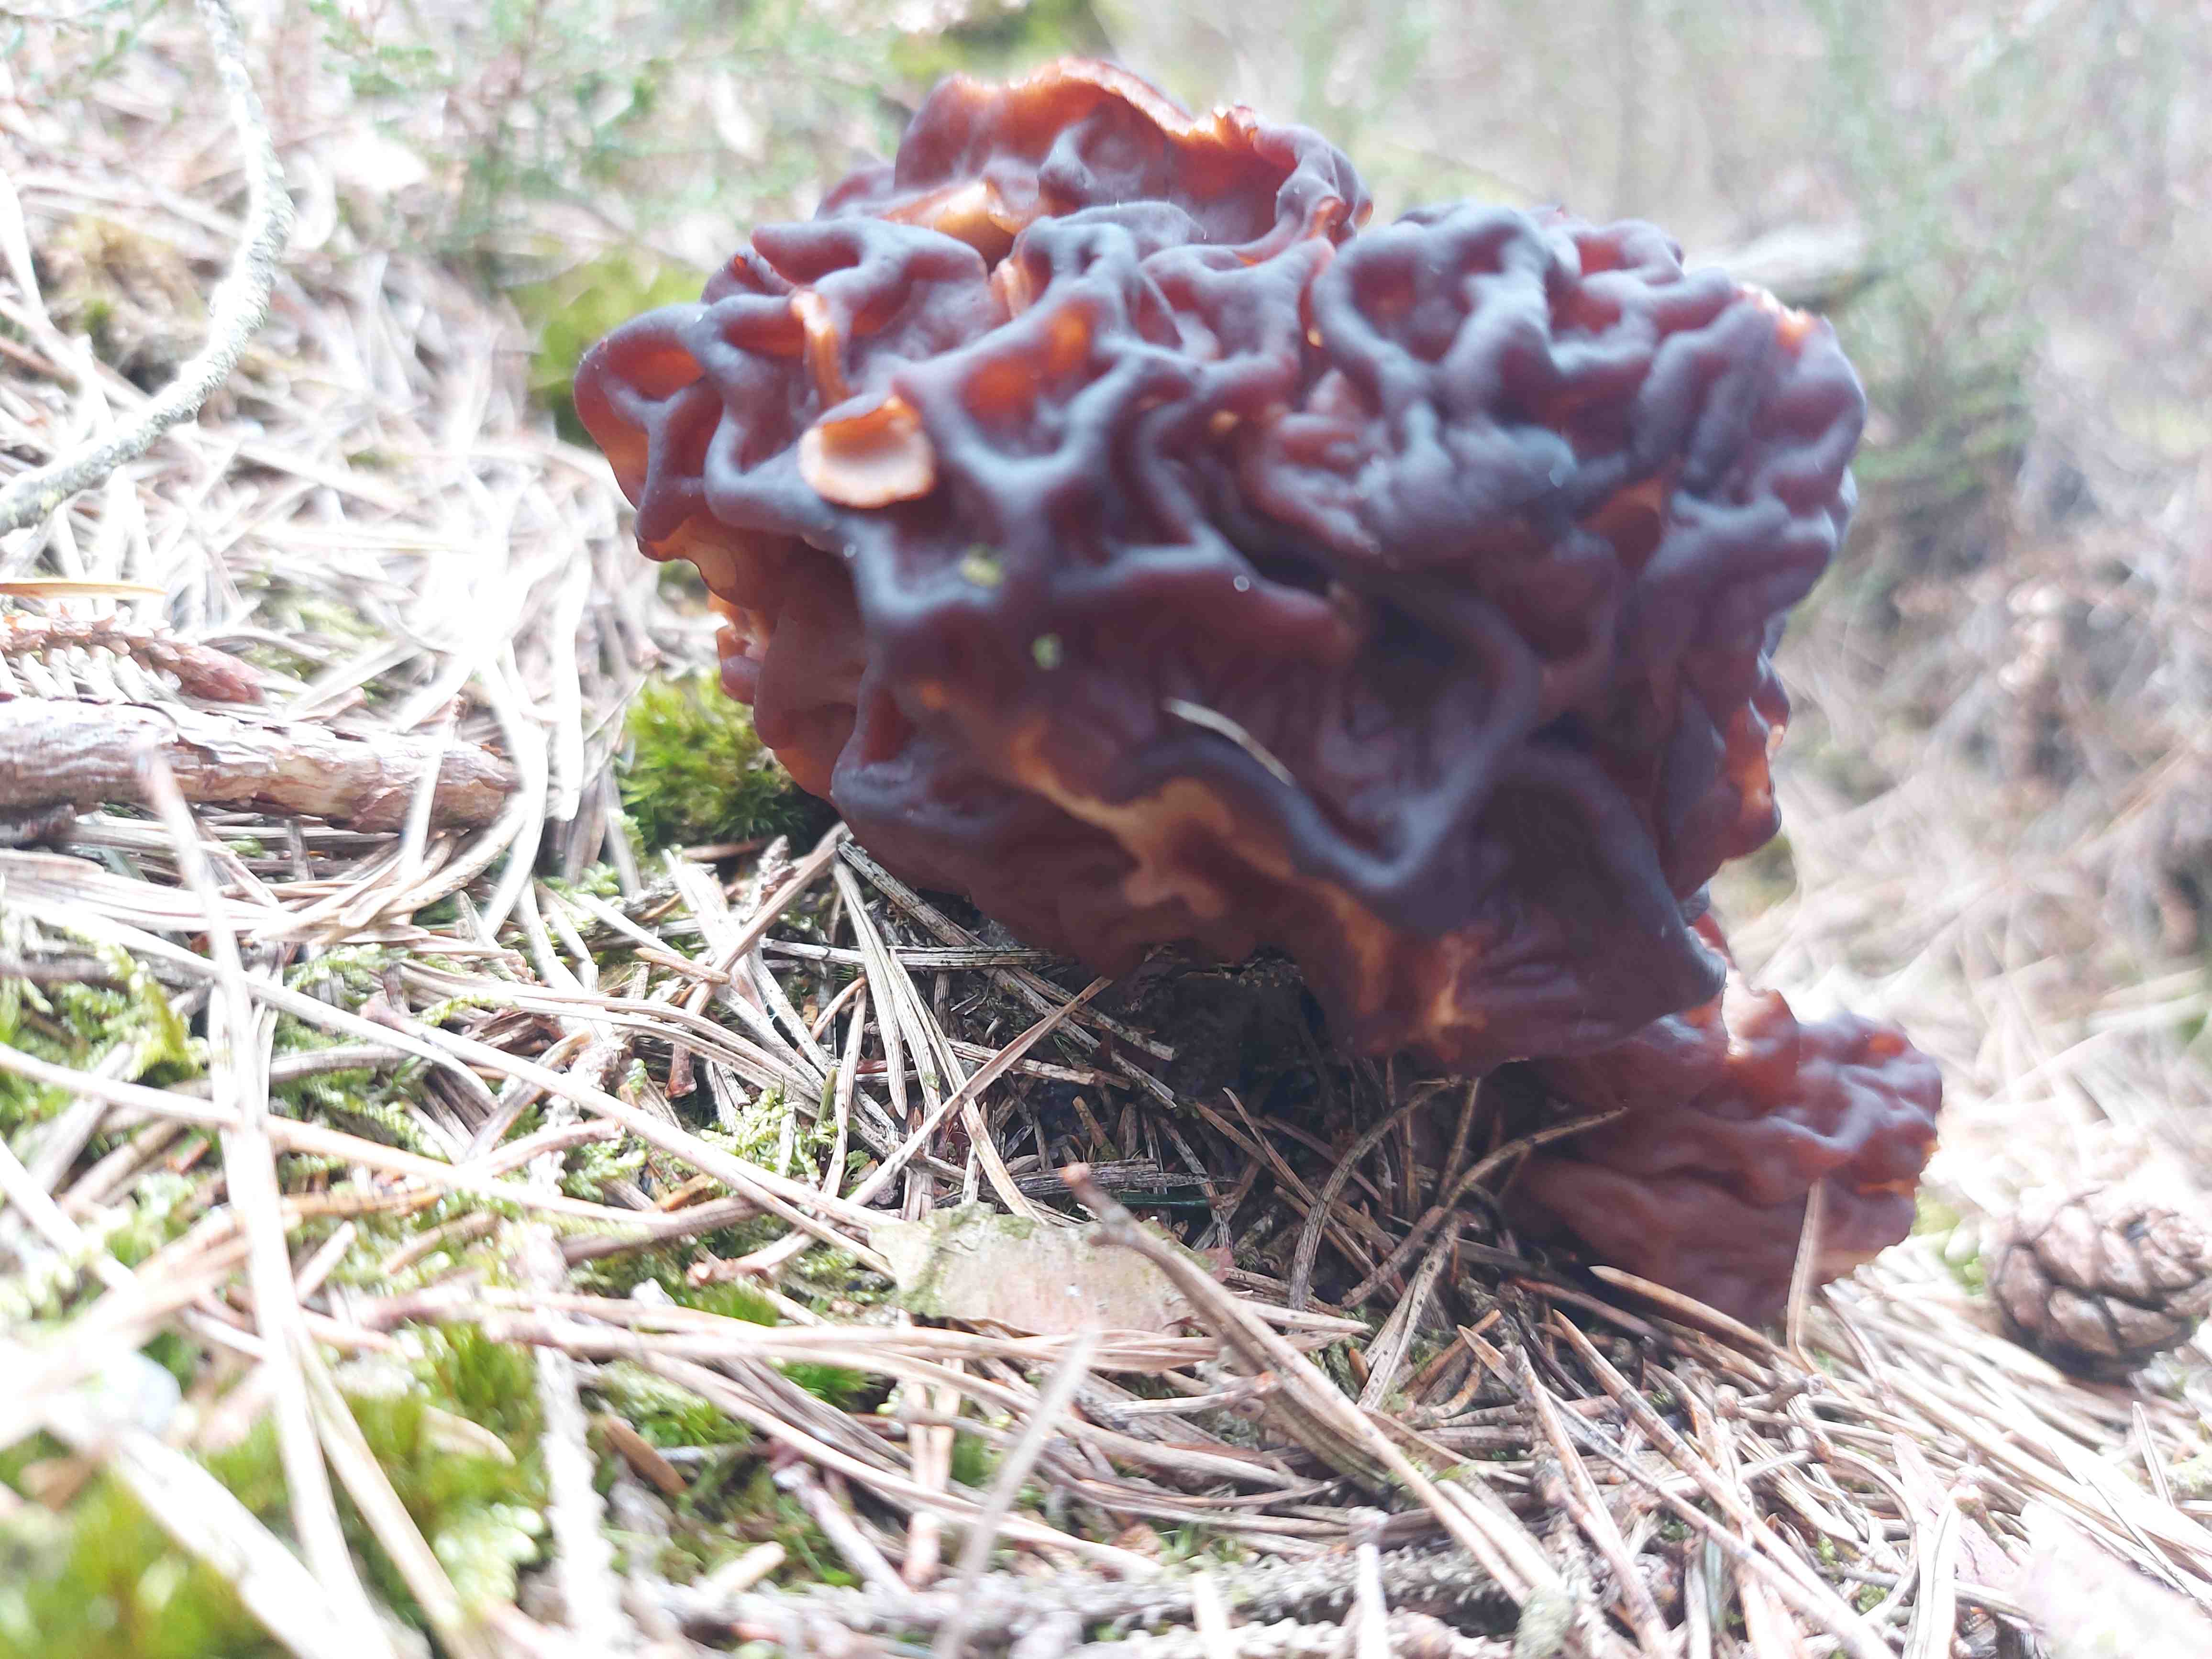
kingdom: Fungi
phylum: Ascomycota
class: Pezizomycetes
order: Pezizales
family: Discinaceae
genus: Gyromitra
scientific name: Gyromitra esculenta
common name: ægte stenmorkel
